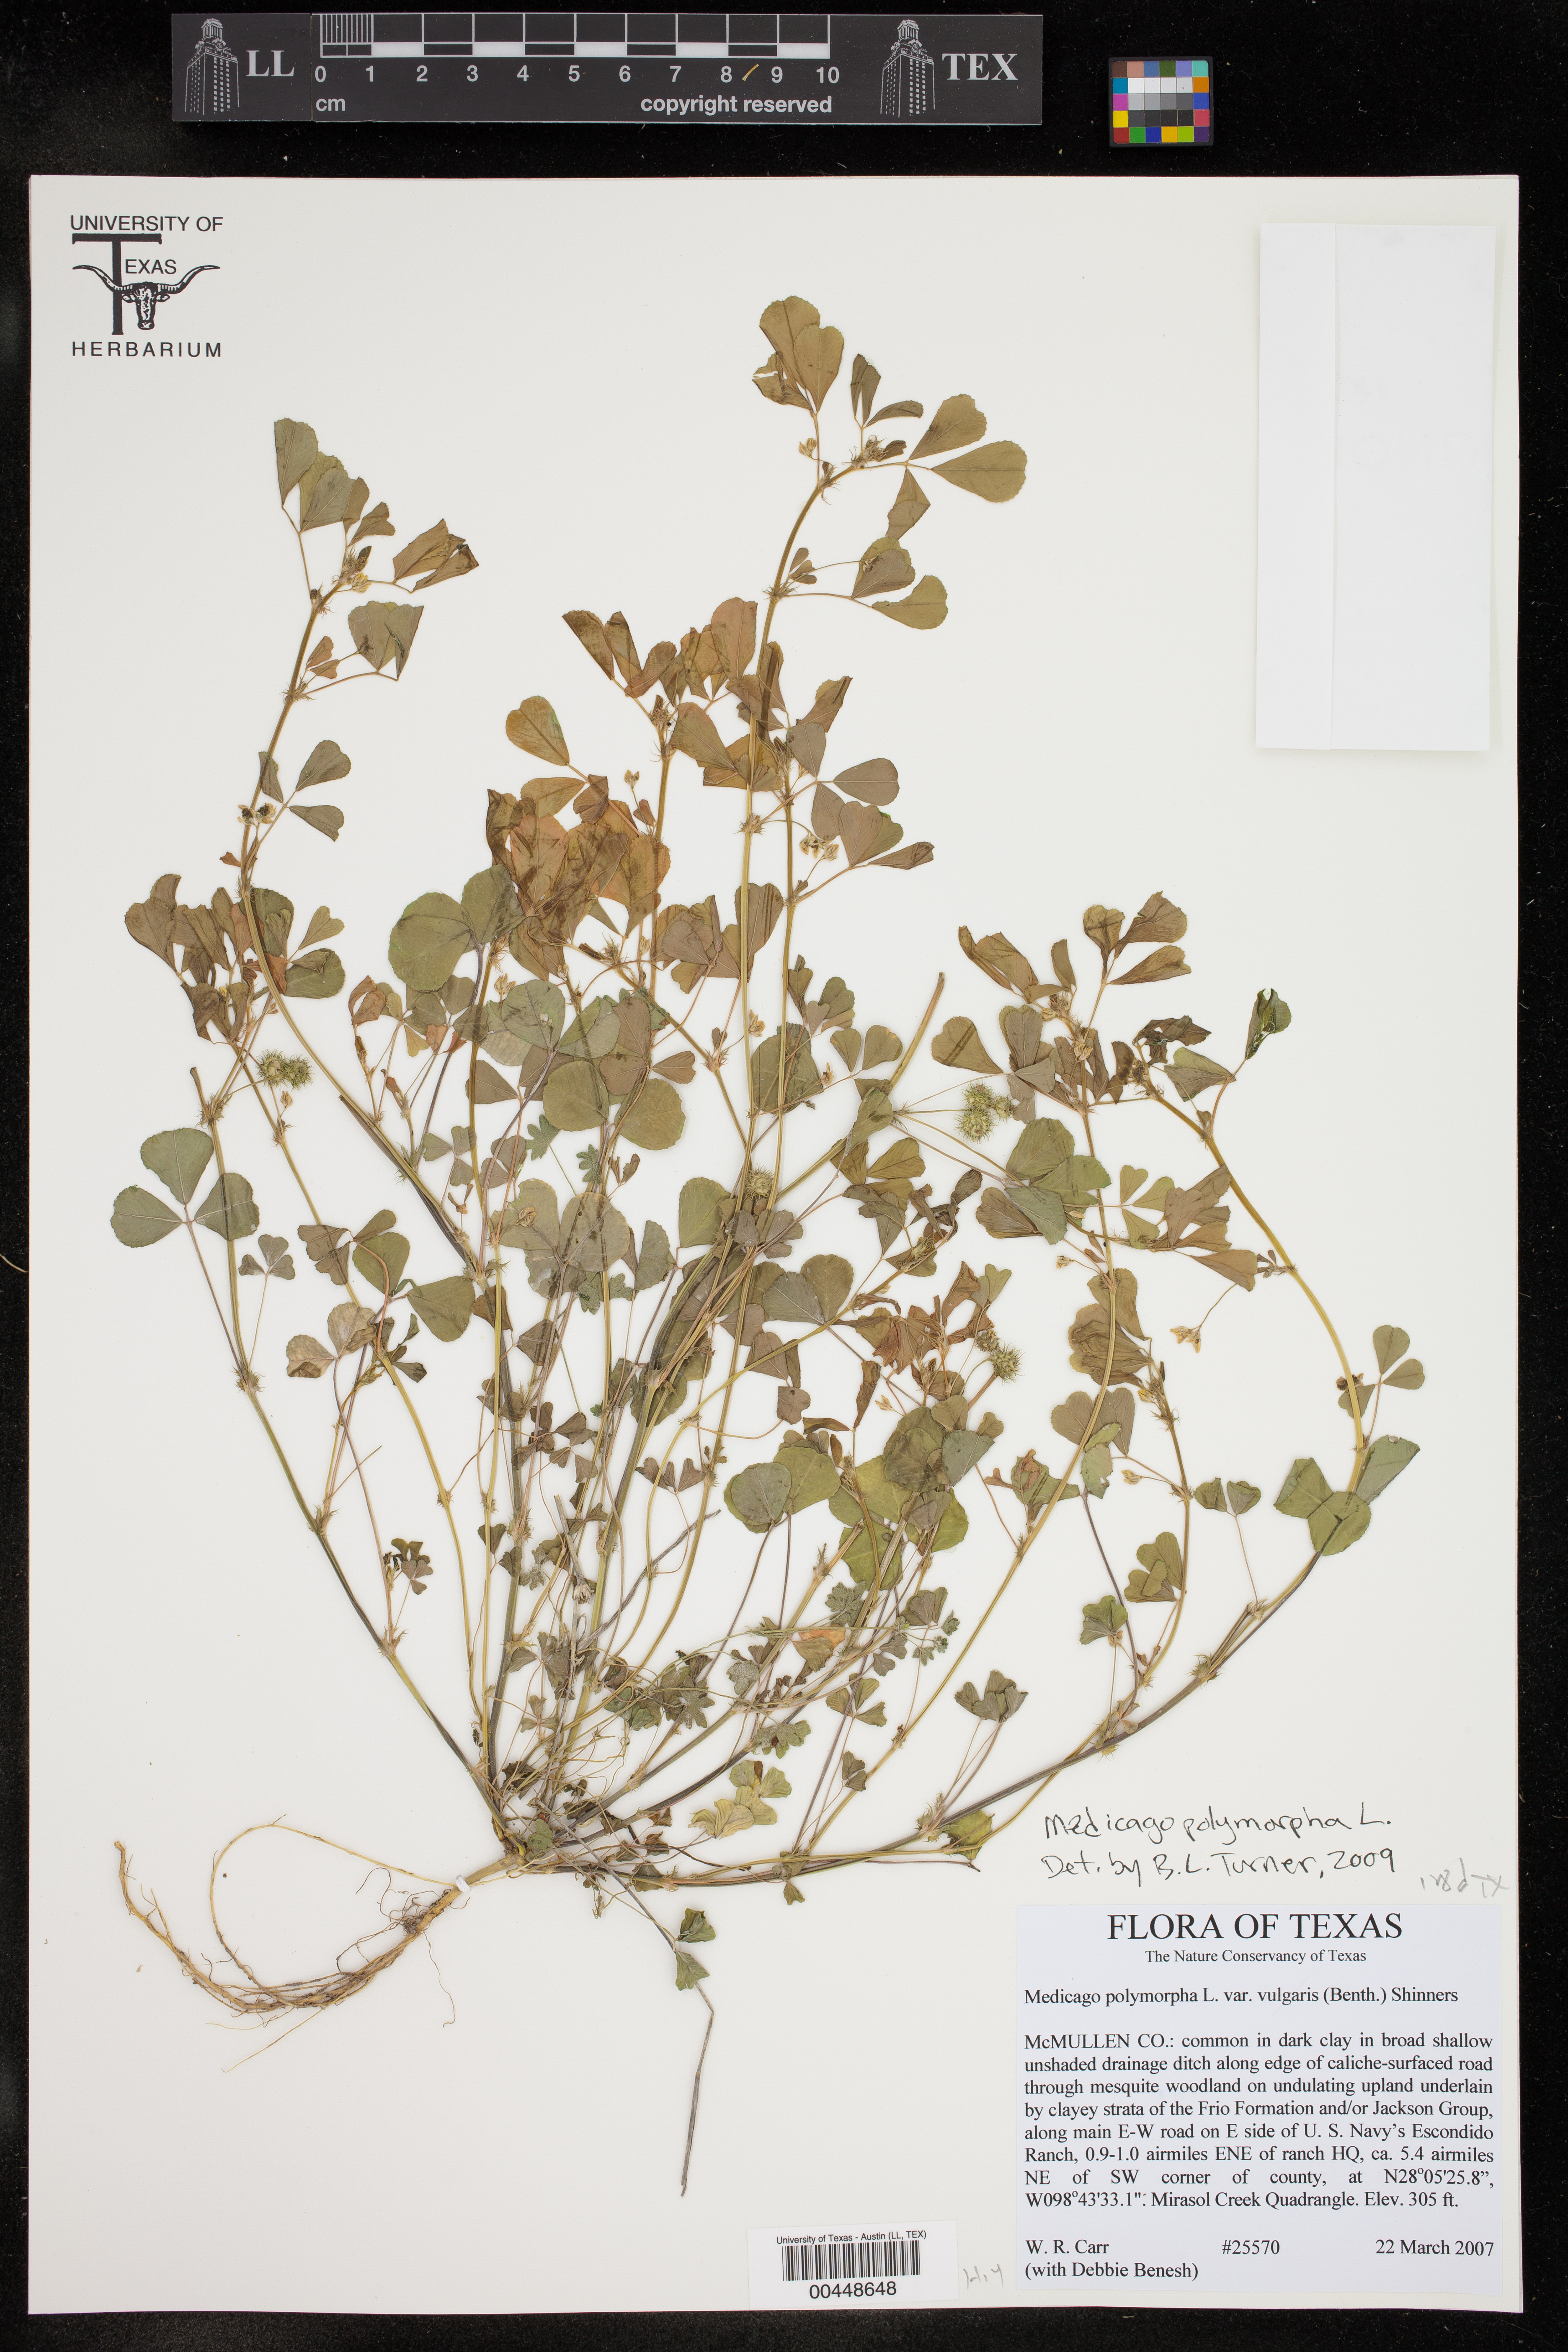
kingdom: Plantae
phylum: Tracheophyta
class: Magnoliopsida
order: Fabales
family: Fabaceae
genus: Medicago
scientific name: Medicago polymorpha
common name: Burclover
